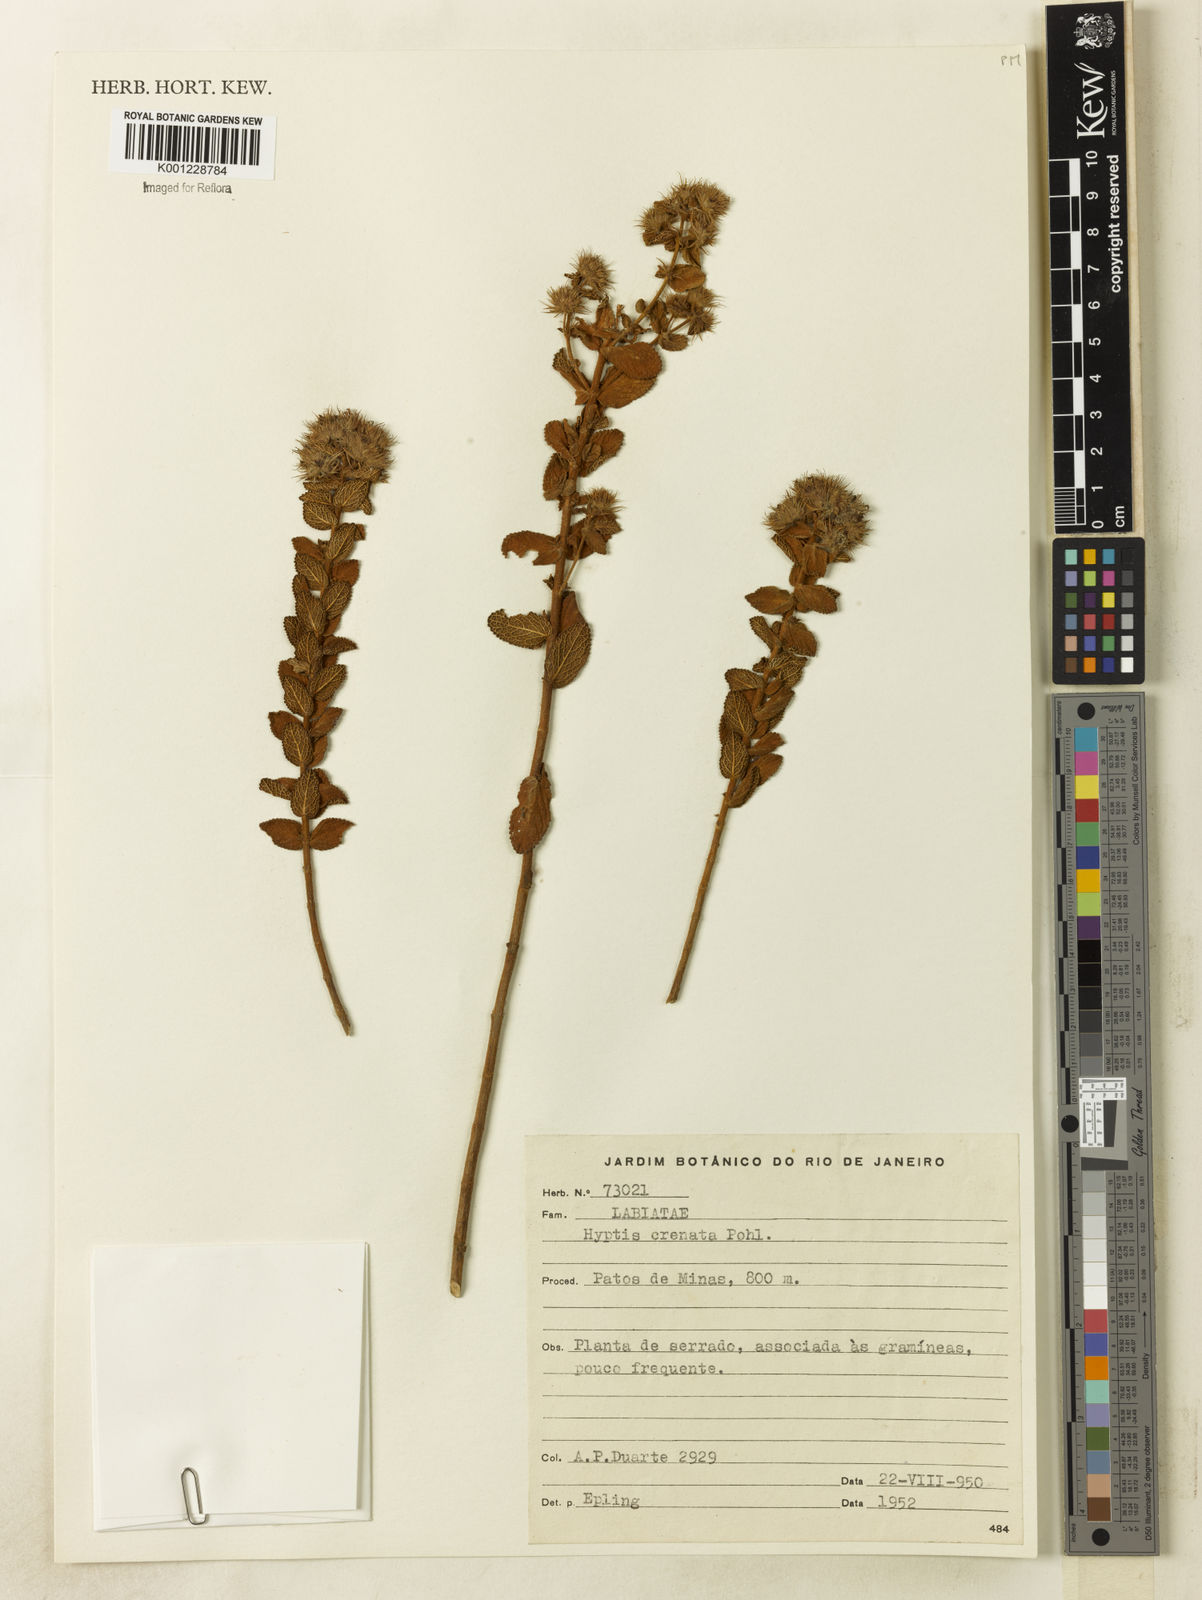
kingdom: Plantae
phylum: Tracheophyta
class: Magnoliopsida
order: Lamiales
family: Lamiaceae
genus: Hyptis
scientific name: Hyptis crenata
